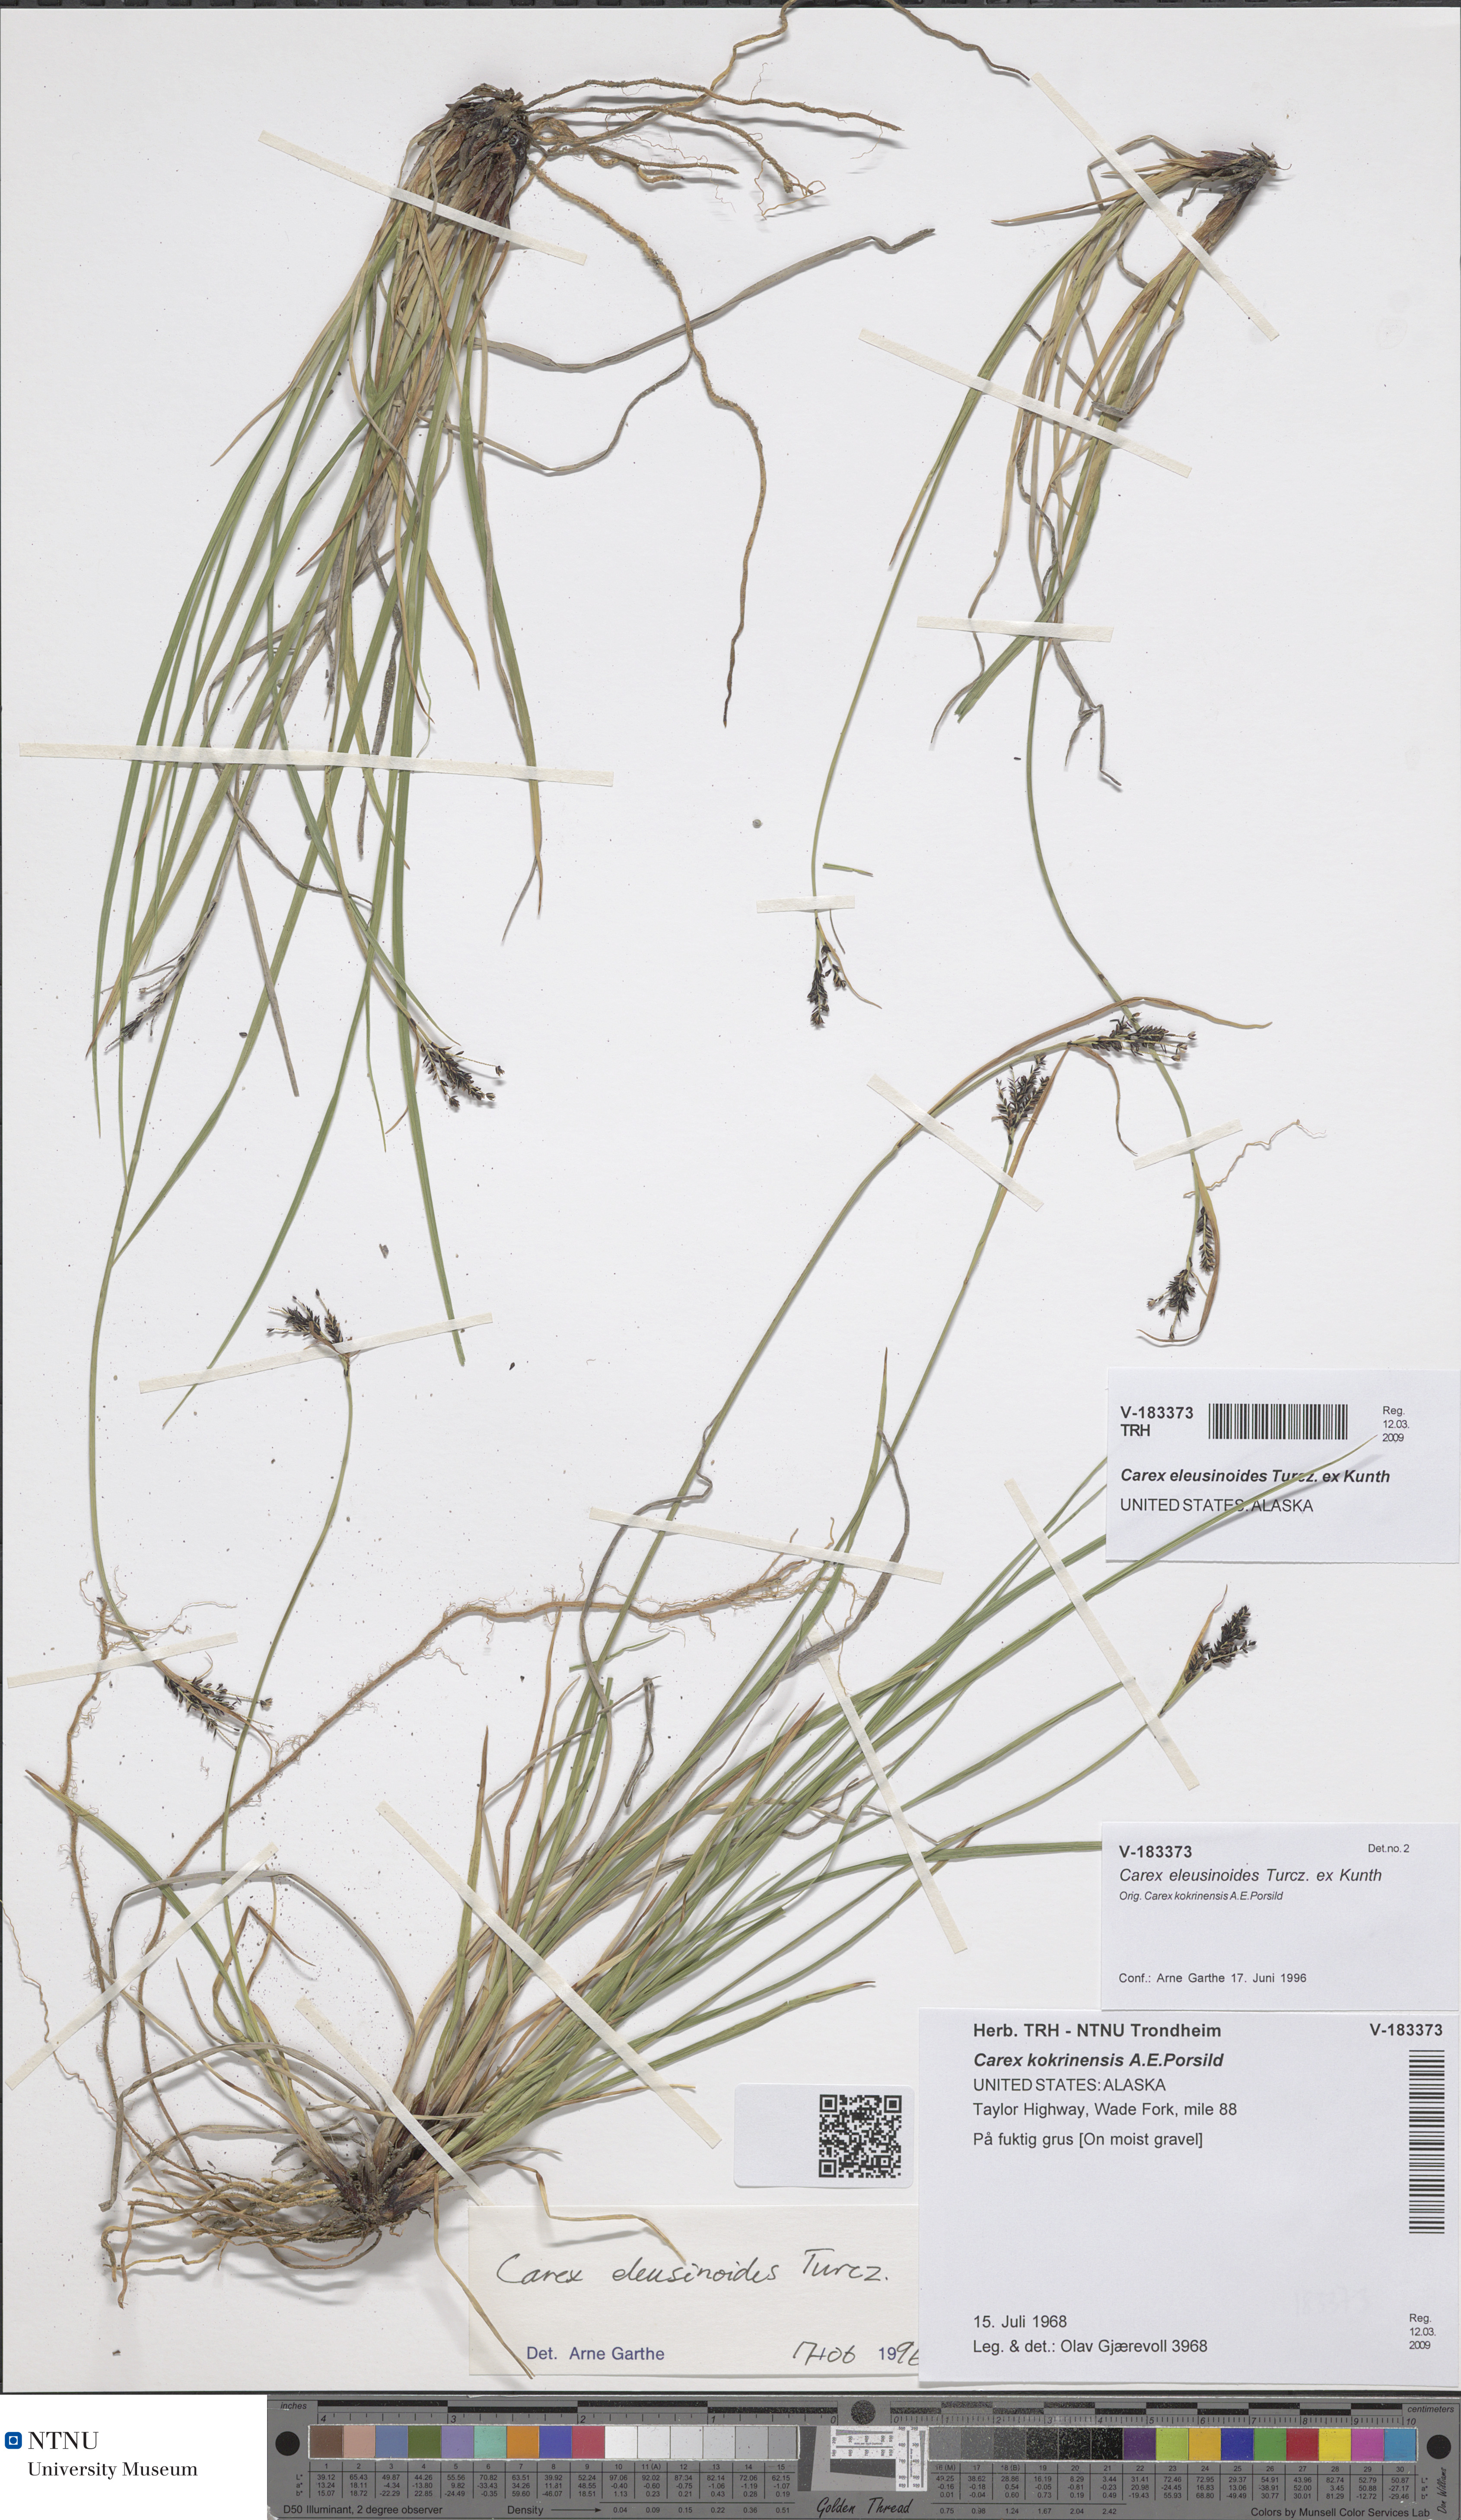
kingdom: Plantae
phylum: Tracheophyta
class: Liliopsida
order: Poales
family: Cyperaceae
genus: Carex
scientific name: Carex eleusinoides
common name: Goosegrass sedge
